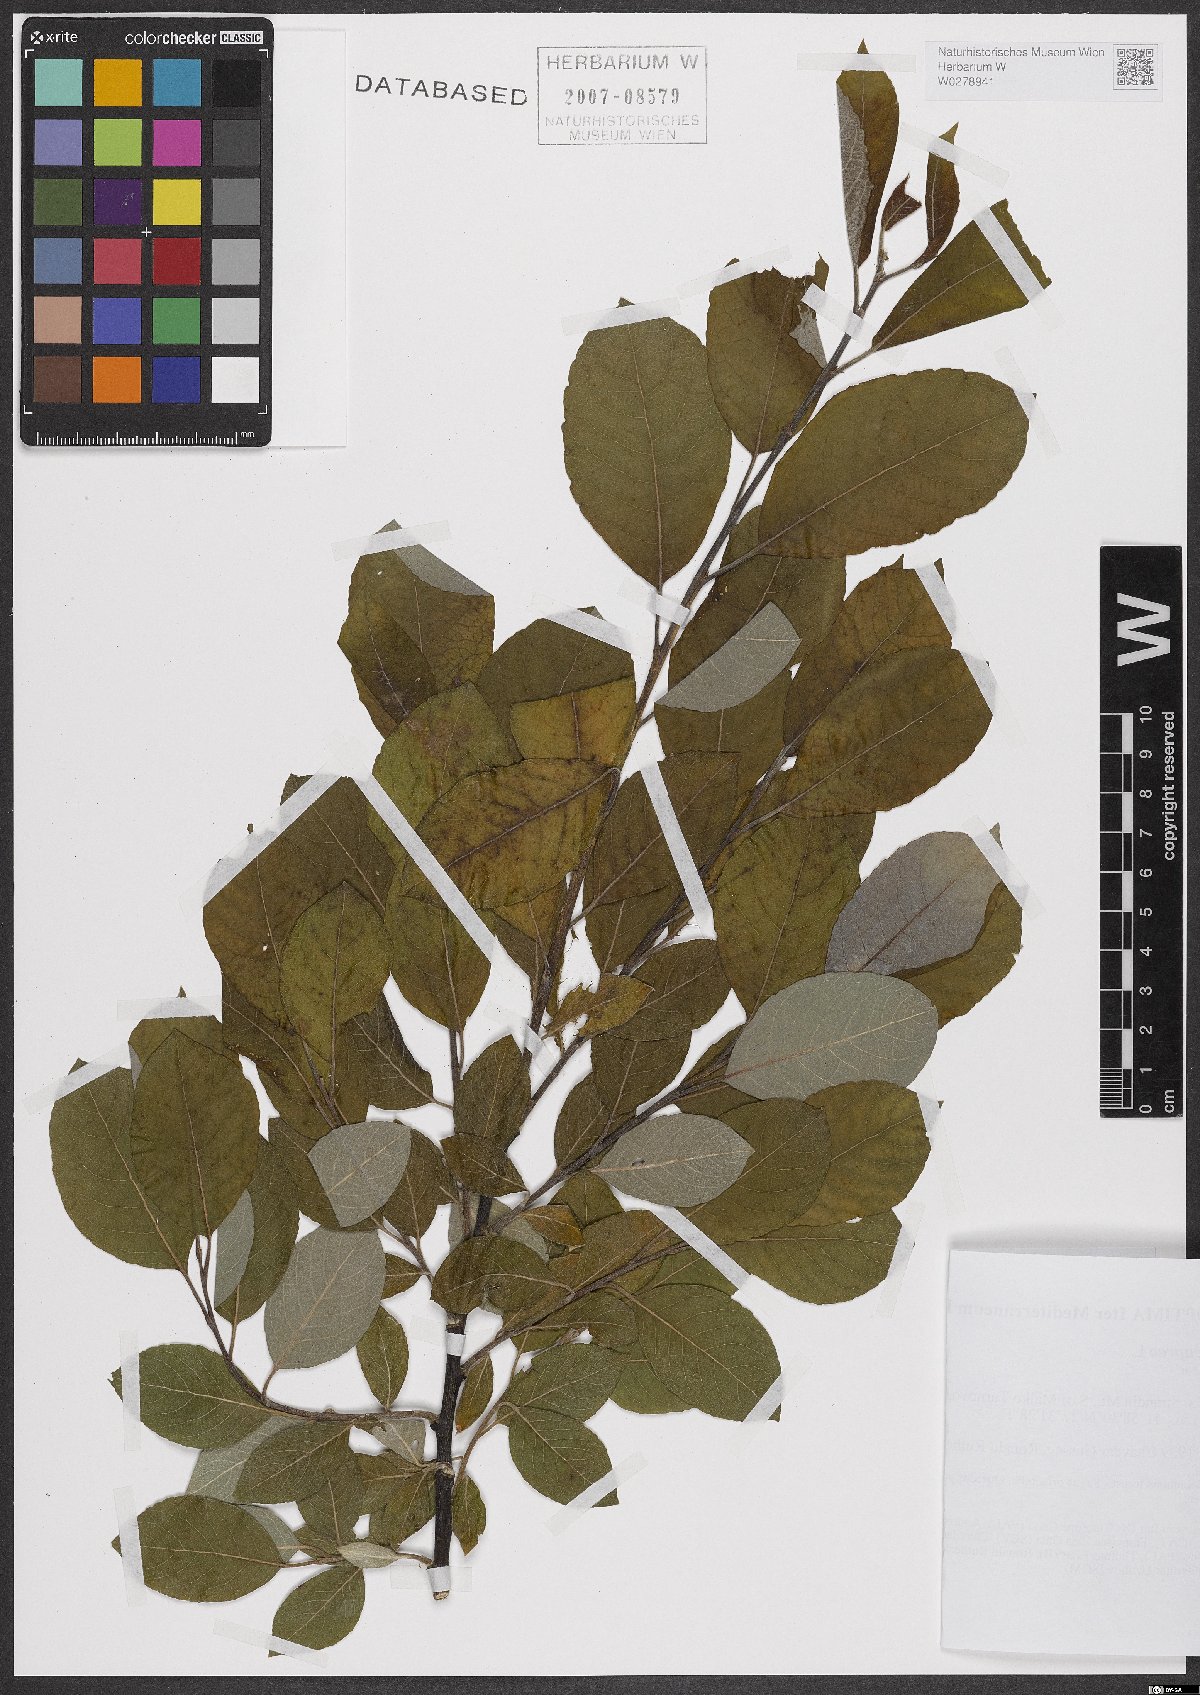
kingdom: Plantae
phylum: Tracheophyta
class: Magnoliopsida
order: Malpighiales
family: Salicaceae
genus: Salix
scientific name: Salix caprea
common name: Goat willow
